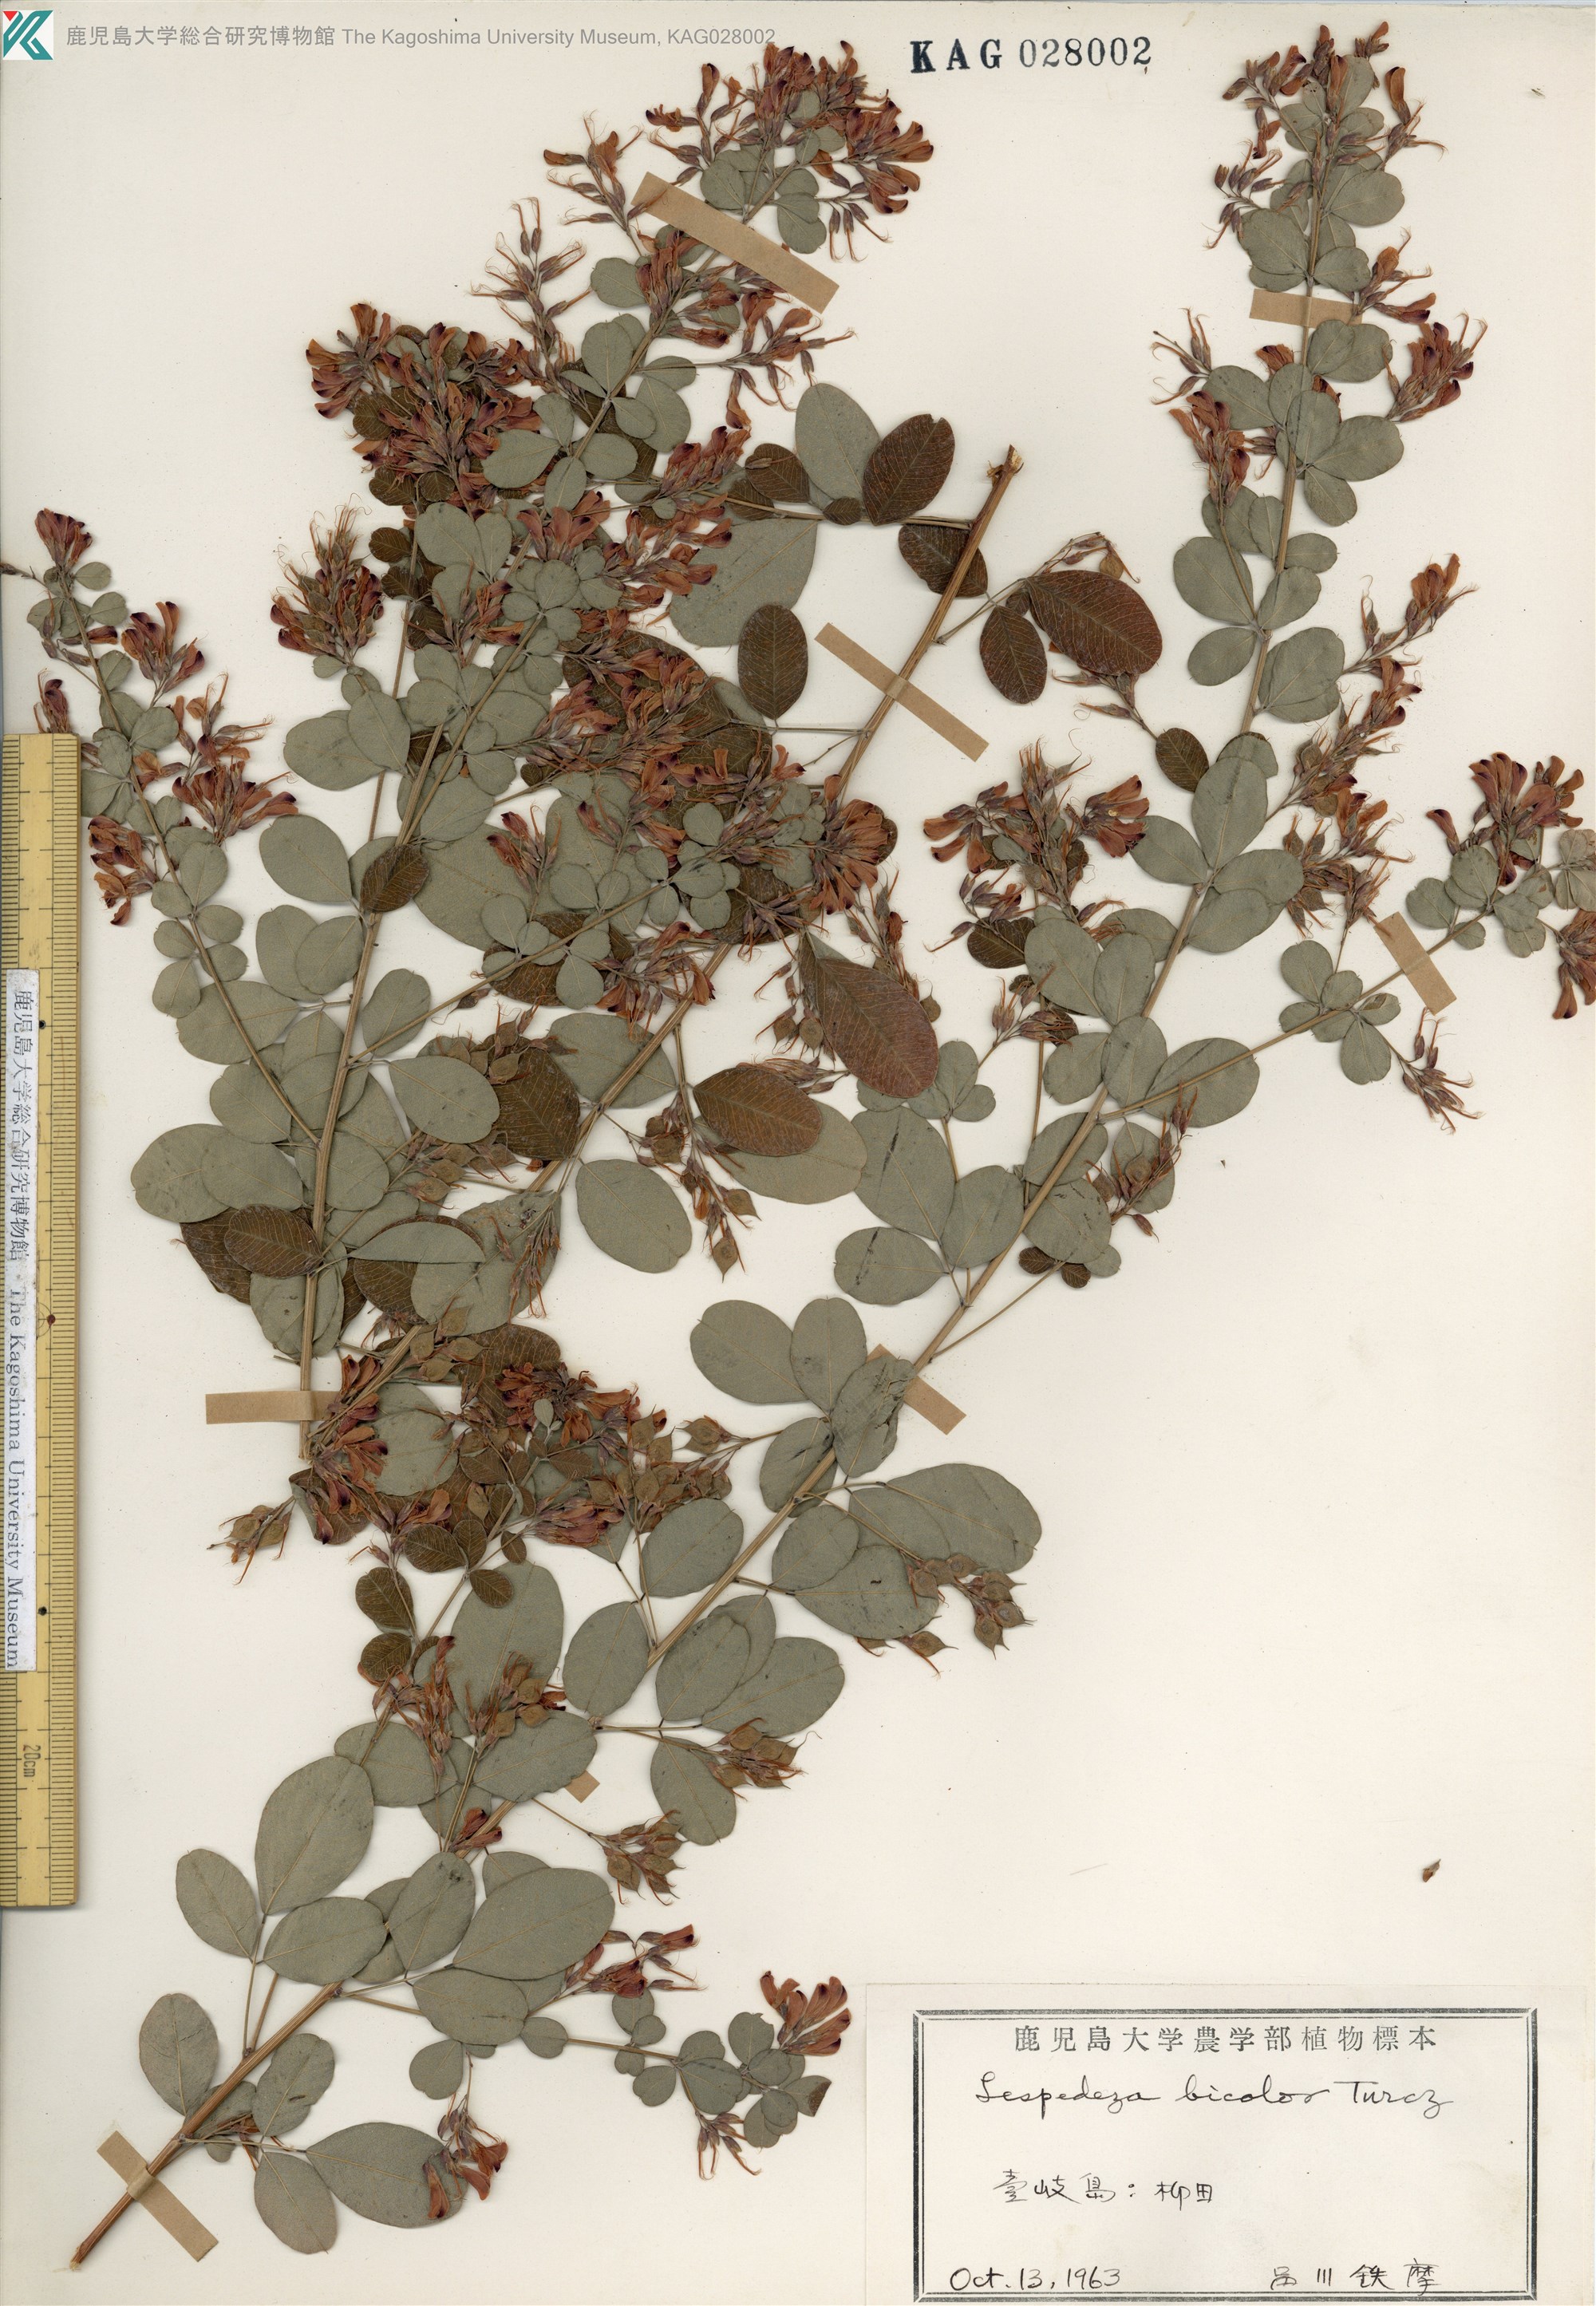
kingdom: Plantae
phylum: Tracheophyta
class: Magnoliopsida
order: Fabales
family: Fabaceae
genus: Lespedeza
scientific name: Lespedeza bicolor
